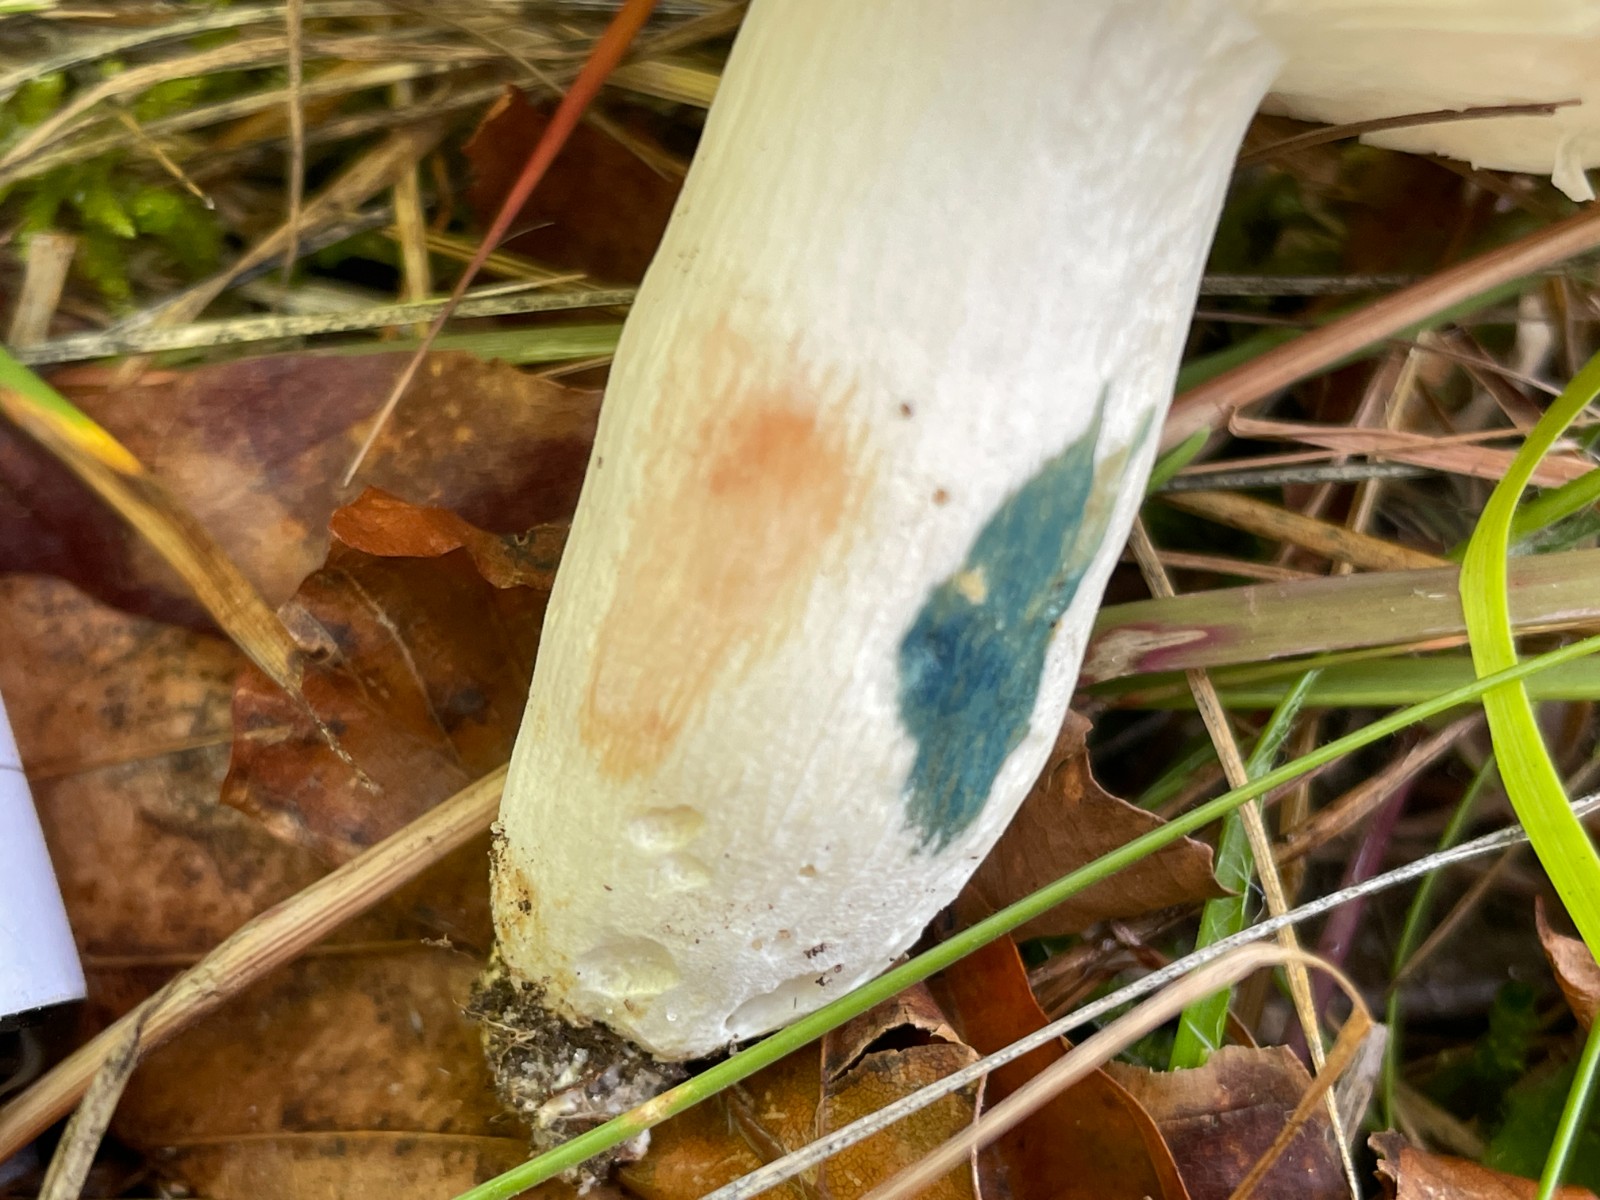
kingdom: Fungi
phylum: Basidiomycota
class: Agaricomycetes
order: Russulales
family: Russulaceae
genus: Russula
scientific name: Russula vesca
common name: spiselig skørhat
